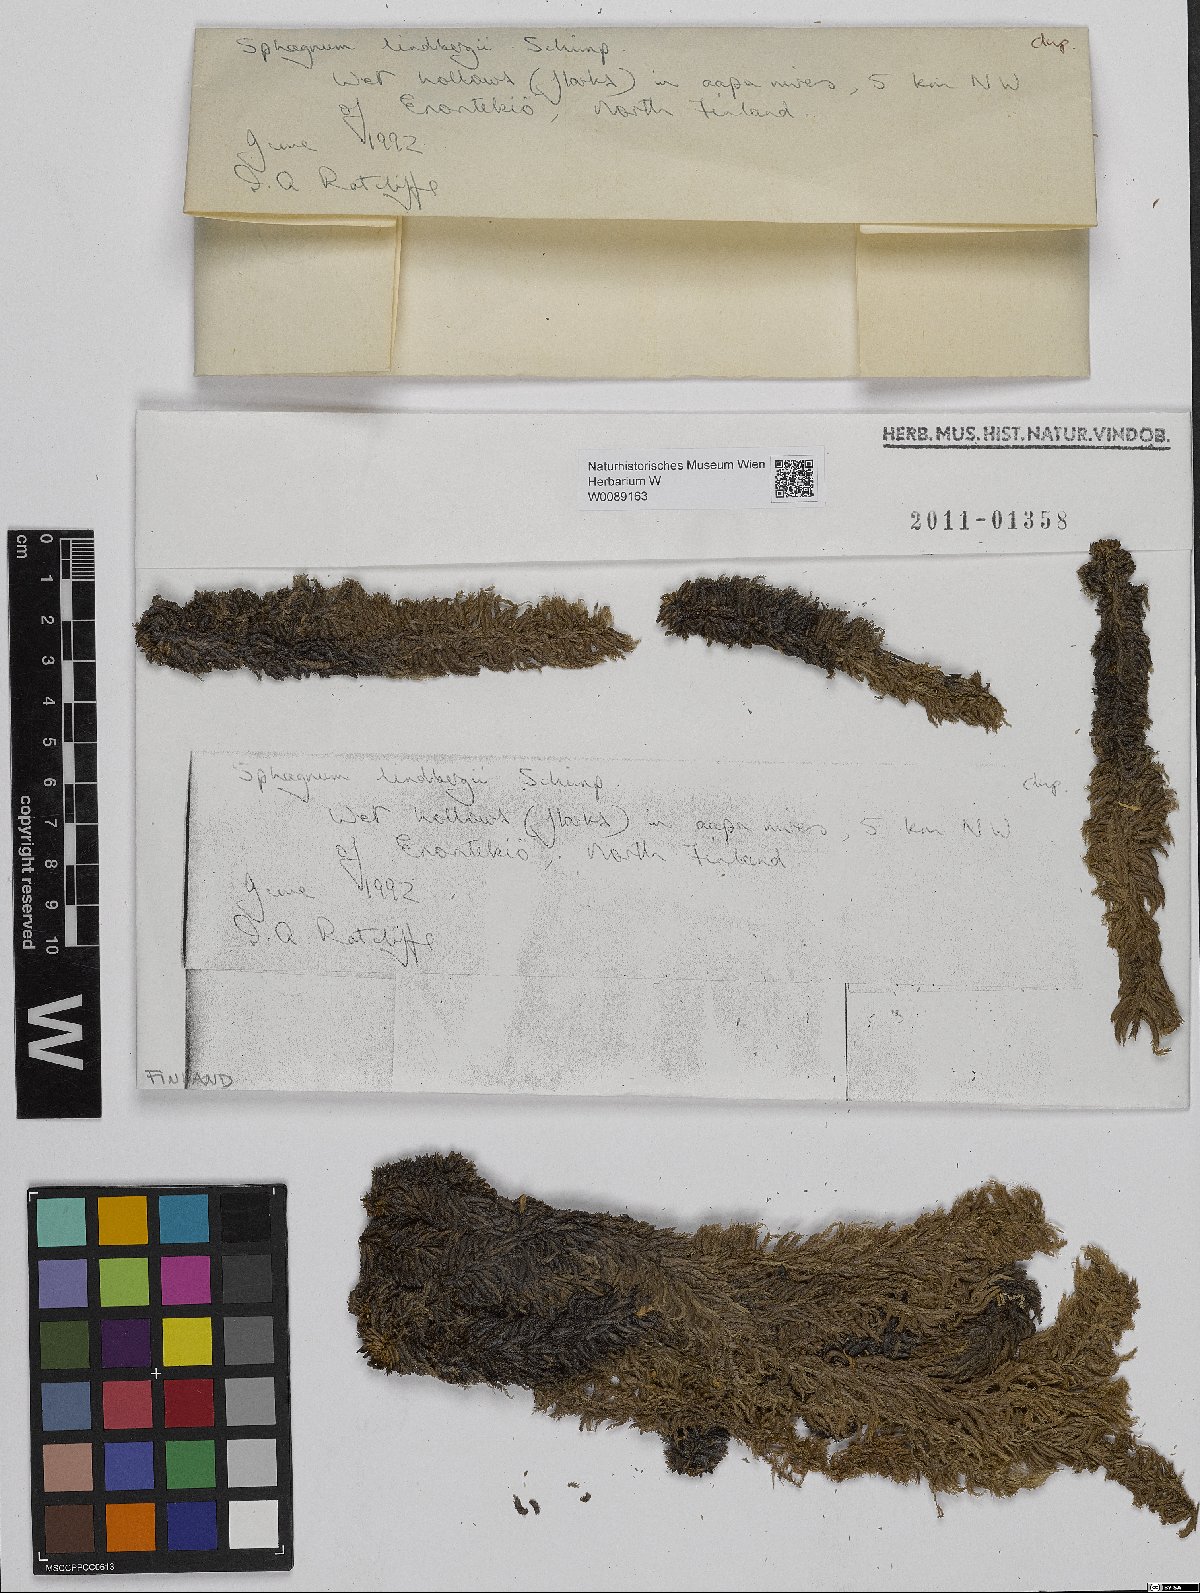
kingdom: Plantae
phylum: Bryophyta
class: Sphagnopsida
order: Sphagnales
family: Sphagnaceae
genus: Sphagnum
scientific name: Sphagnum lindbergii
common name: Lindberg's peat moss
